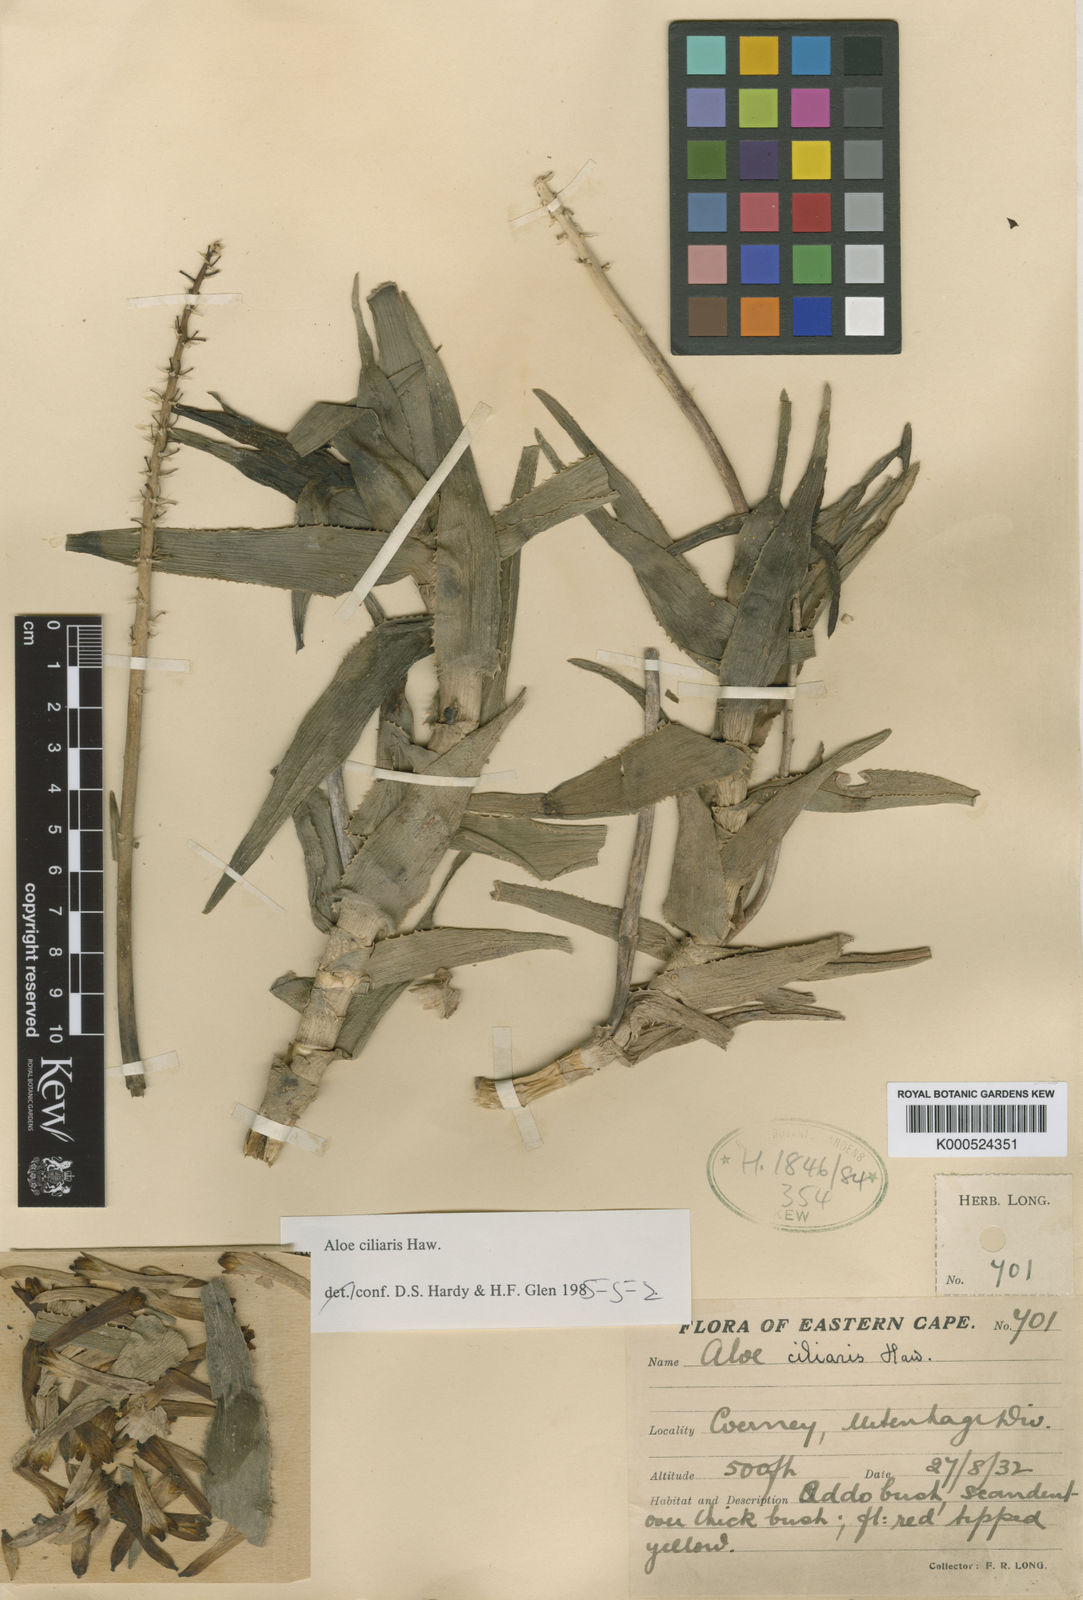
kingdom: Plantae
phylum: Tracheophyta
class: Liliopsida
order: Asparagales
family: Asphodelaceae
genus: Aloiampelos
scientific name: Aloiampelos ciliaris
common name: Climbing aloe
